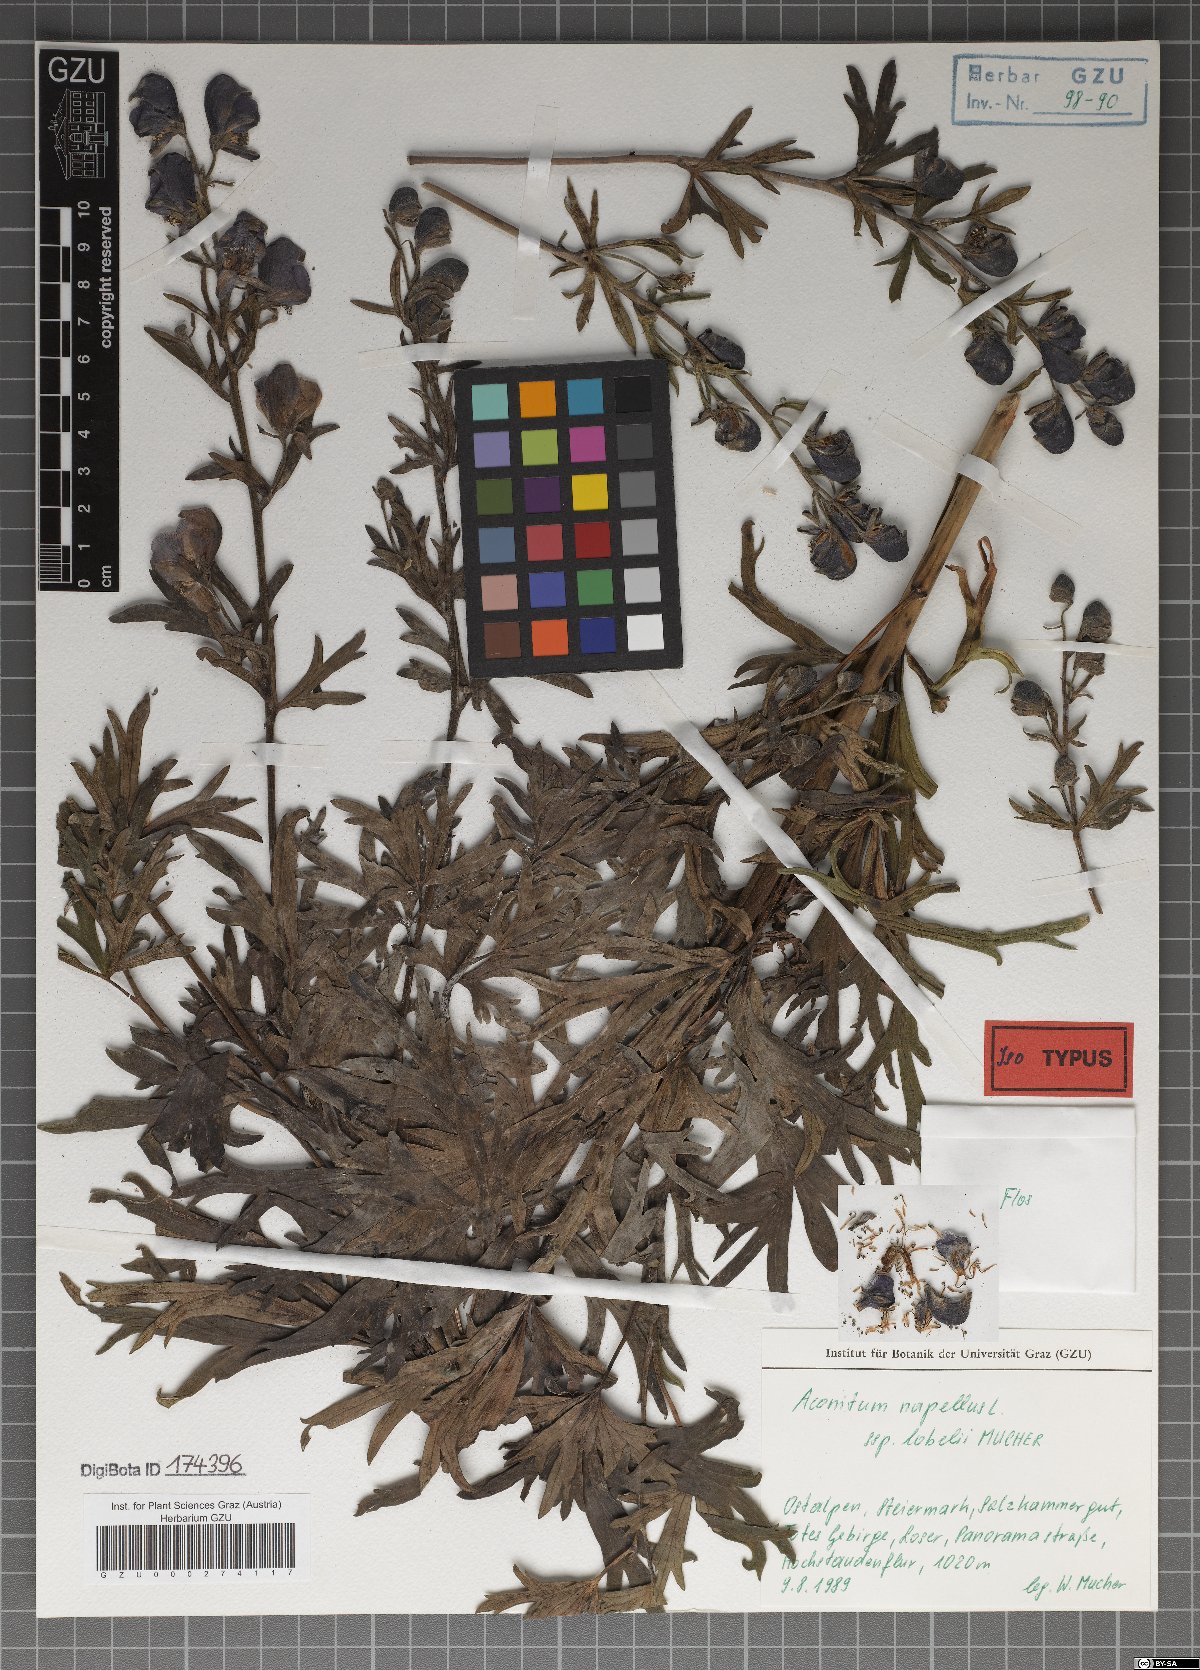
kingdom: Plantae
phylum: Tracheophyta
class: Magnoliopsida
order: Ranunculales
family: Ranunculaceae
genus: Aconitum
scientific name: Aconitum napellus
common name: Garden monkshood
